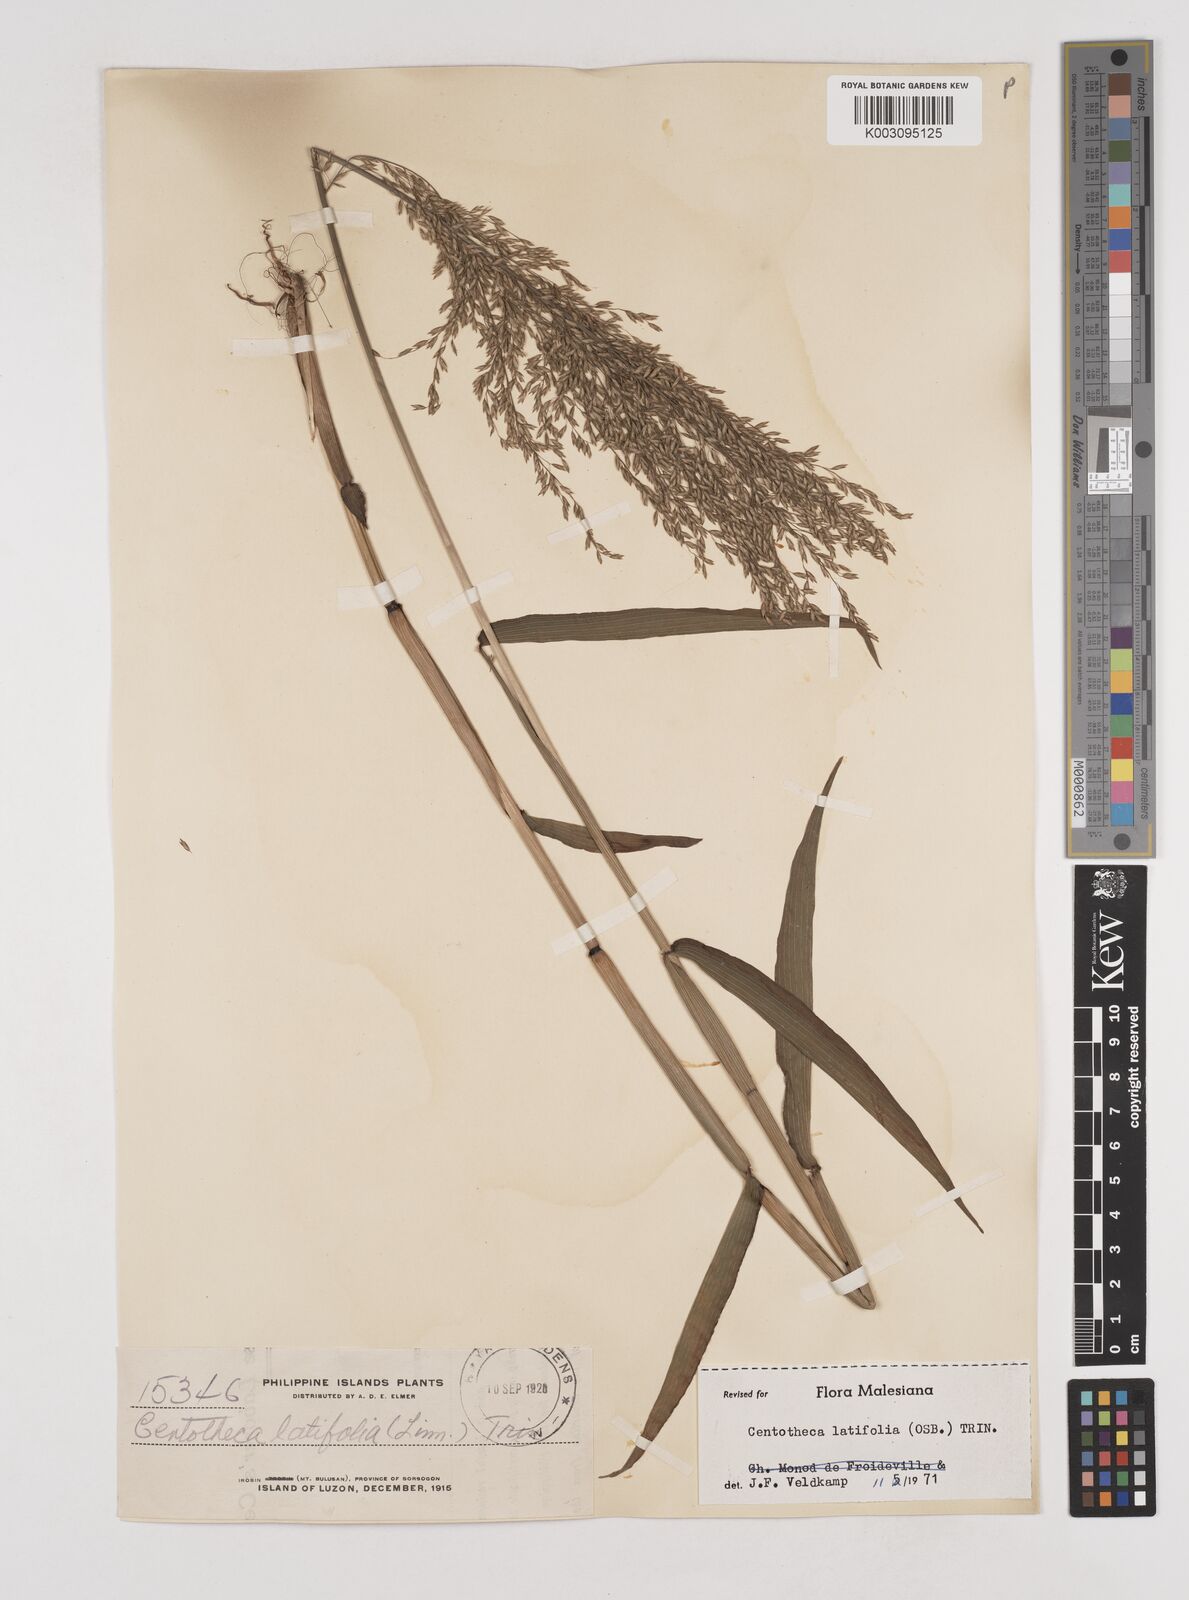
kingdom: Plantae
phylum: Tracheophyta
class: Liliopsida
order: Poales
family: Poaceae
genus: Centotheca
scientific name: Centotheca lappacea
